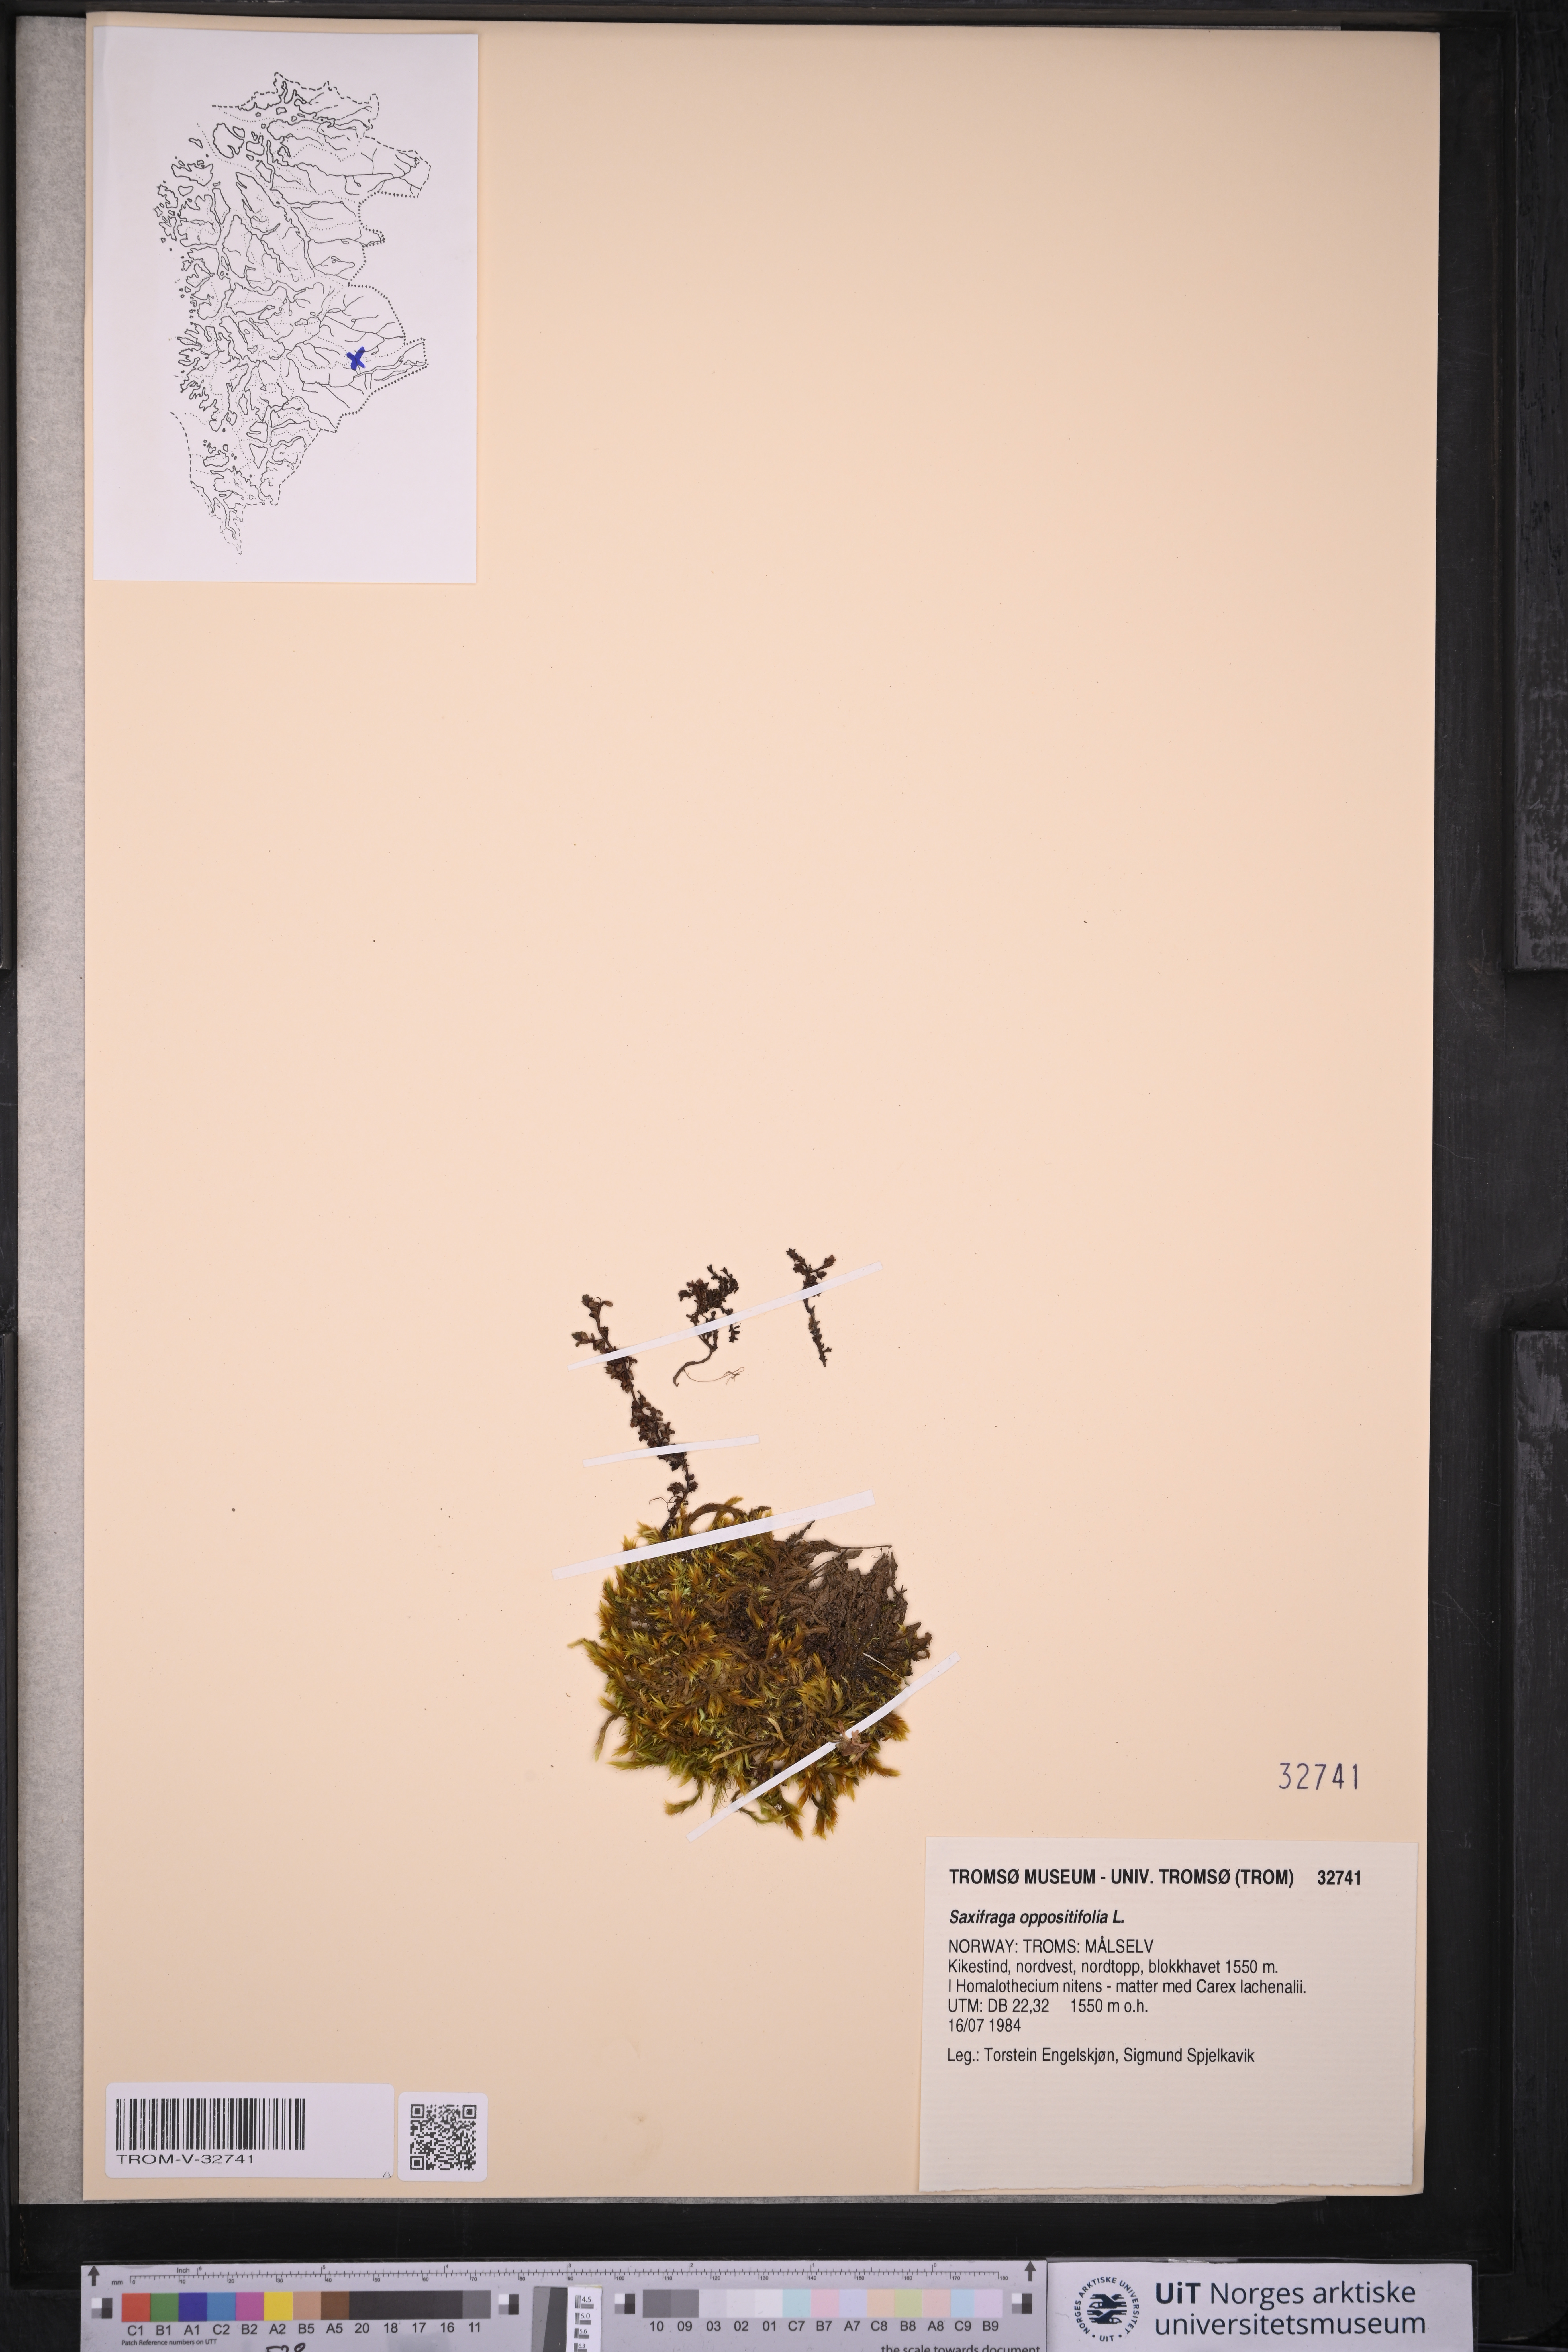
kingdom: Plantae
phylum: Tracheophyta
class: Magnoliopsida
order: Saxifragales
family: Saxifragaceae
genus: Saxifraga
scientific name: Saxifraga oppositifolia
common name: Purple saxifrage
